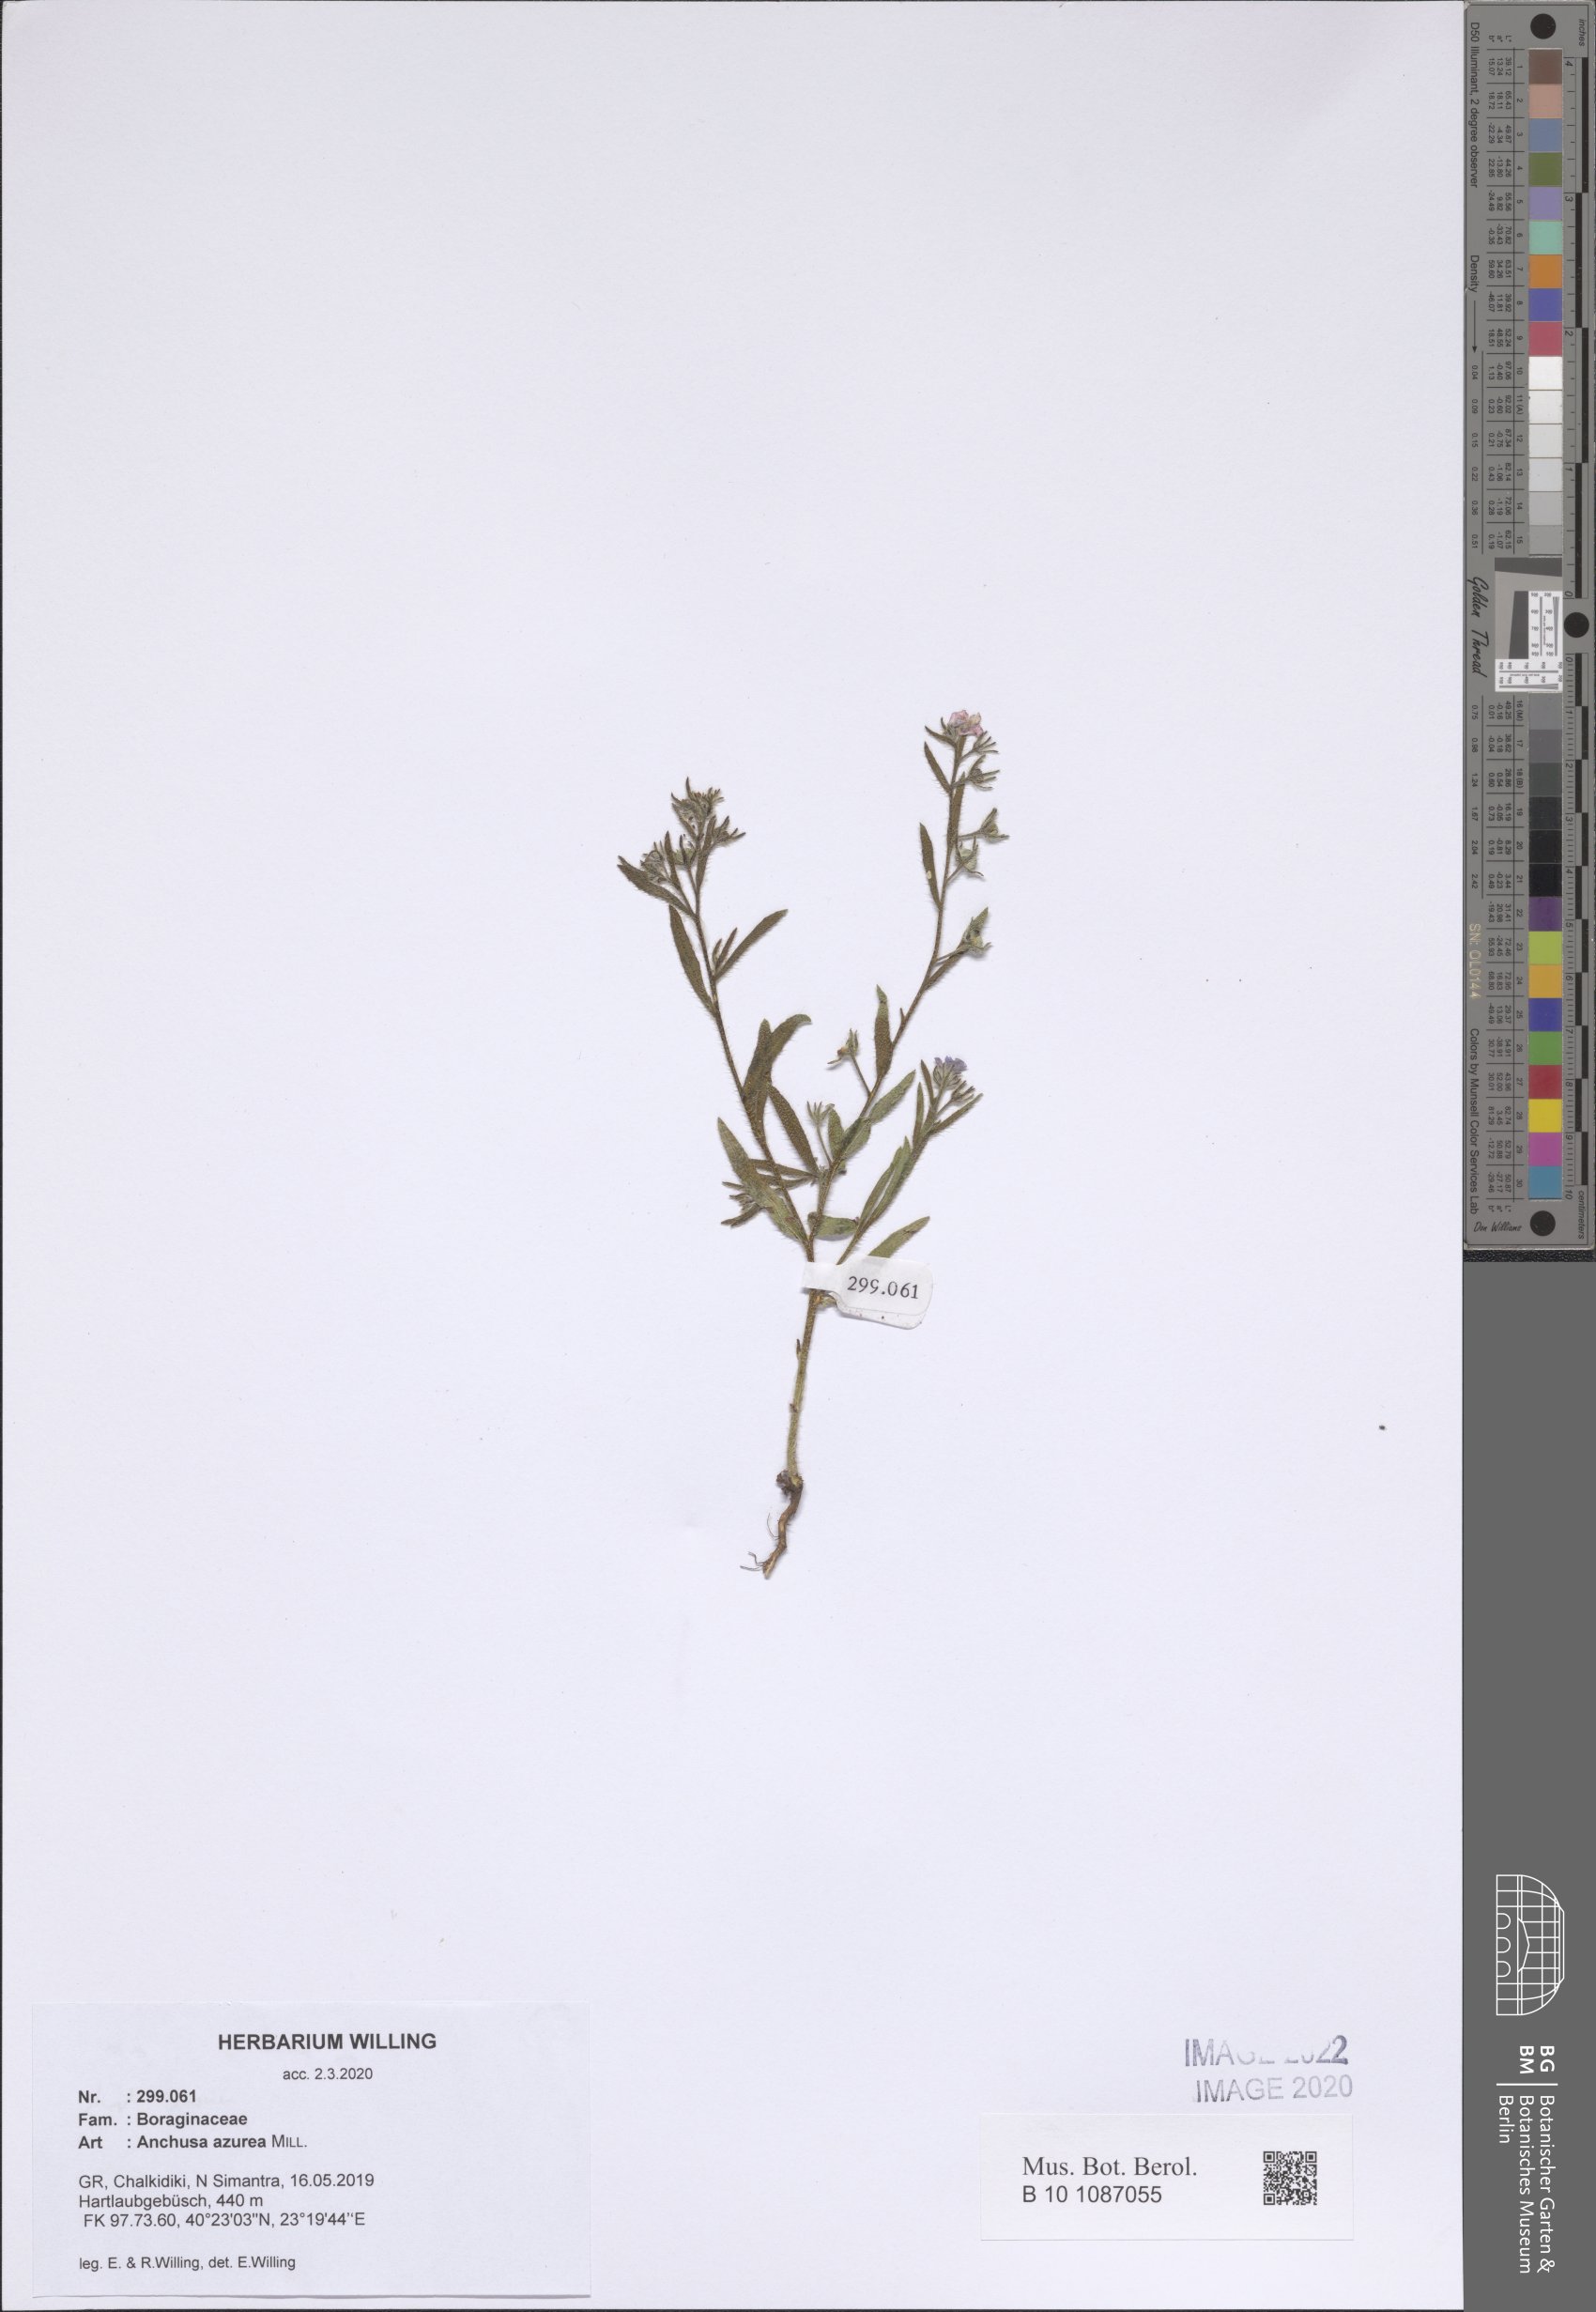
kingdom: Plantae
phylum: Tracheophyta
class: Magnoliopsida
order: Boraginales
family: Boraginaceae
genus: Anchusa
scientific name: Anchusa azurea
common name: Garden anchusa
